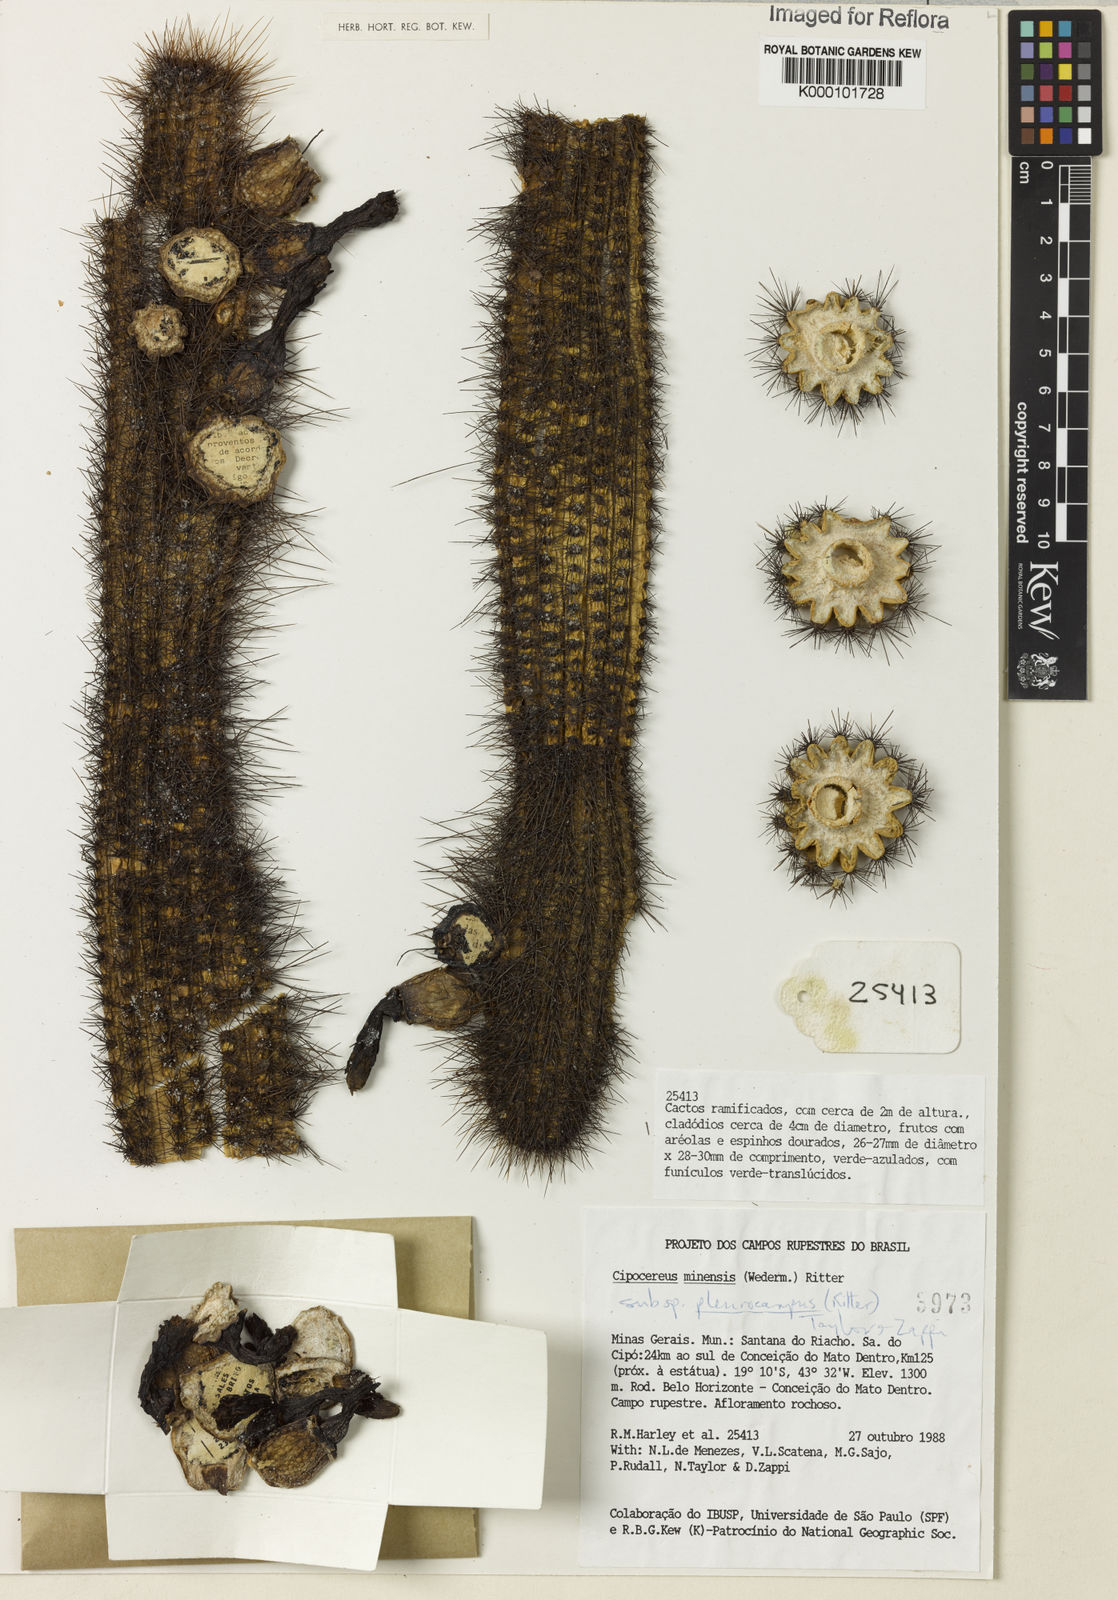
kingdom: Plantae
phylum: Tracheophyta
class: Magnoliopsida
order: Caryophyllales
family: Cactaceae
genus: Cipocereus
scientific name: Cipocereus minensis
